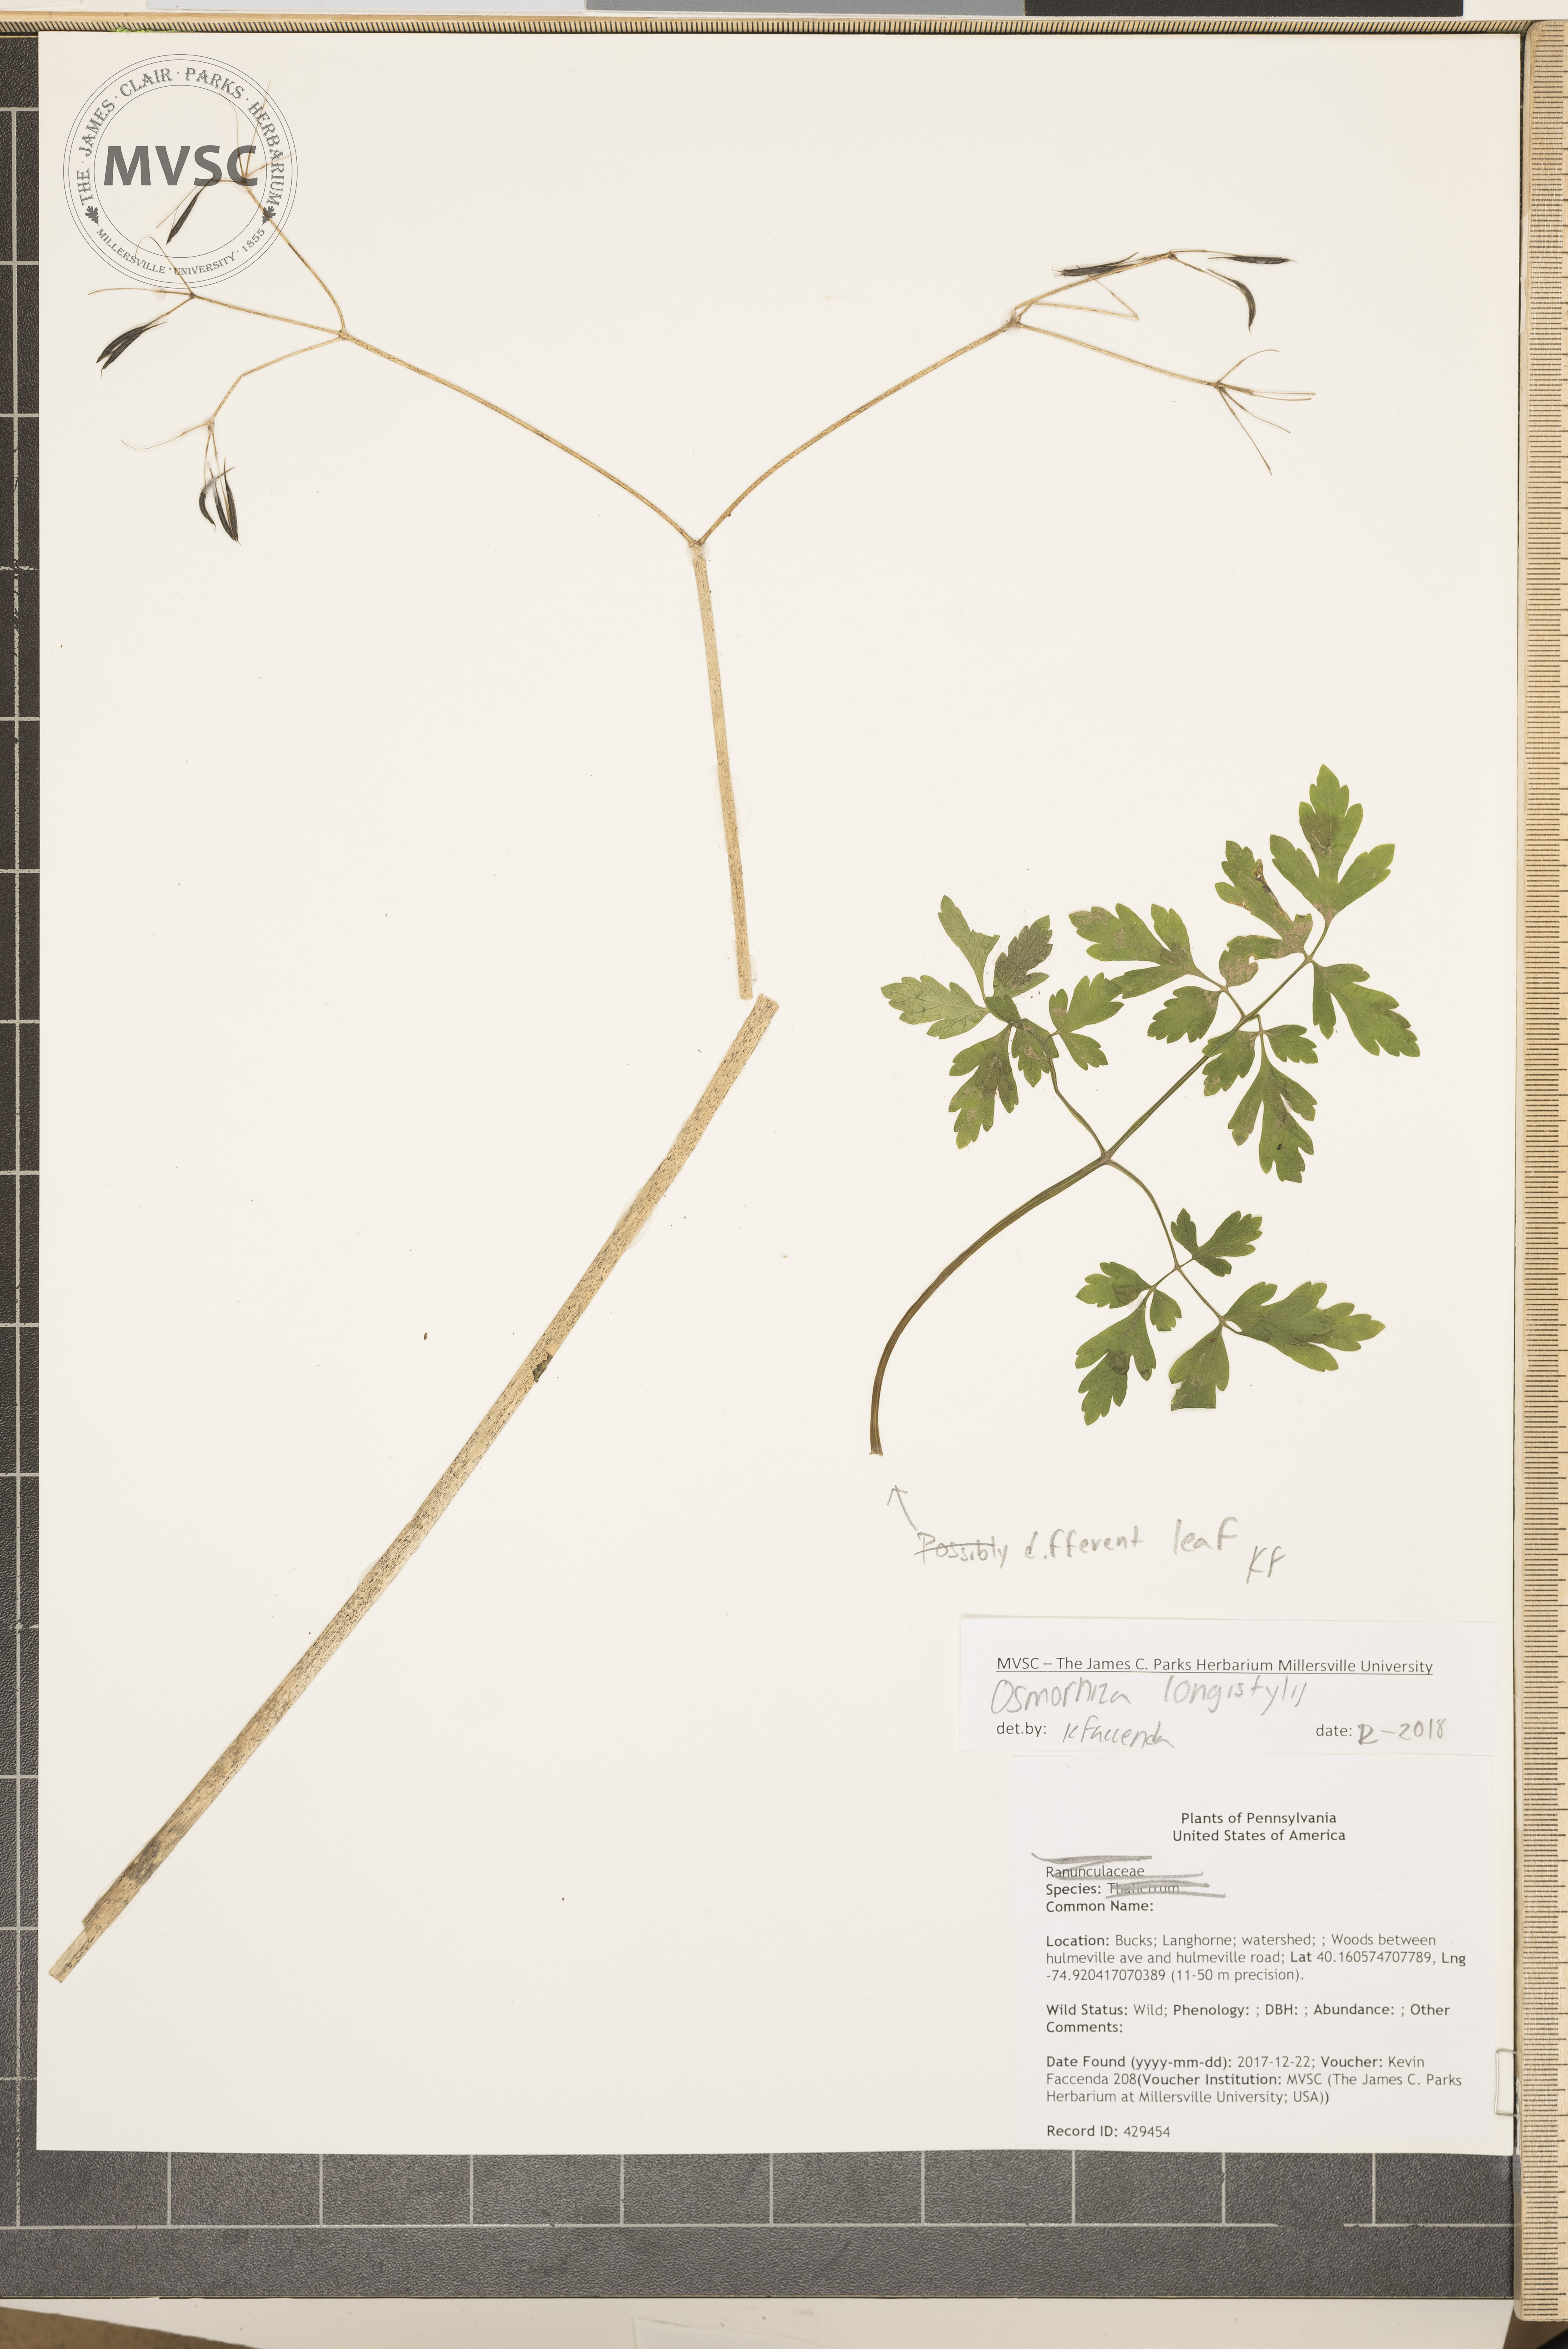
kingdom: Plantae
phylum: Tracheophyta
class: Magnoliopsida
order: Apiales
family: Apiaceae
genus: Osmorhiza
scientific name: Osmorhiza longistylis
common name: Smooth sweet cicely
